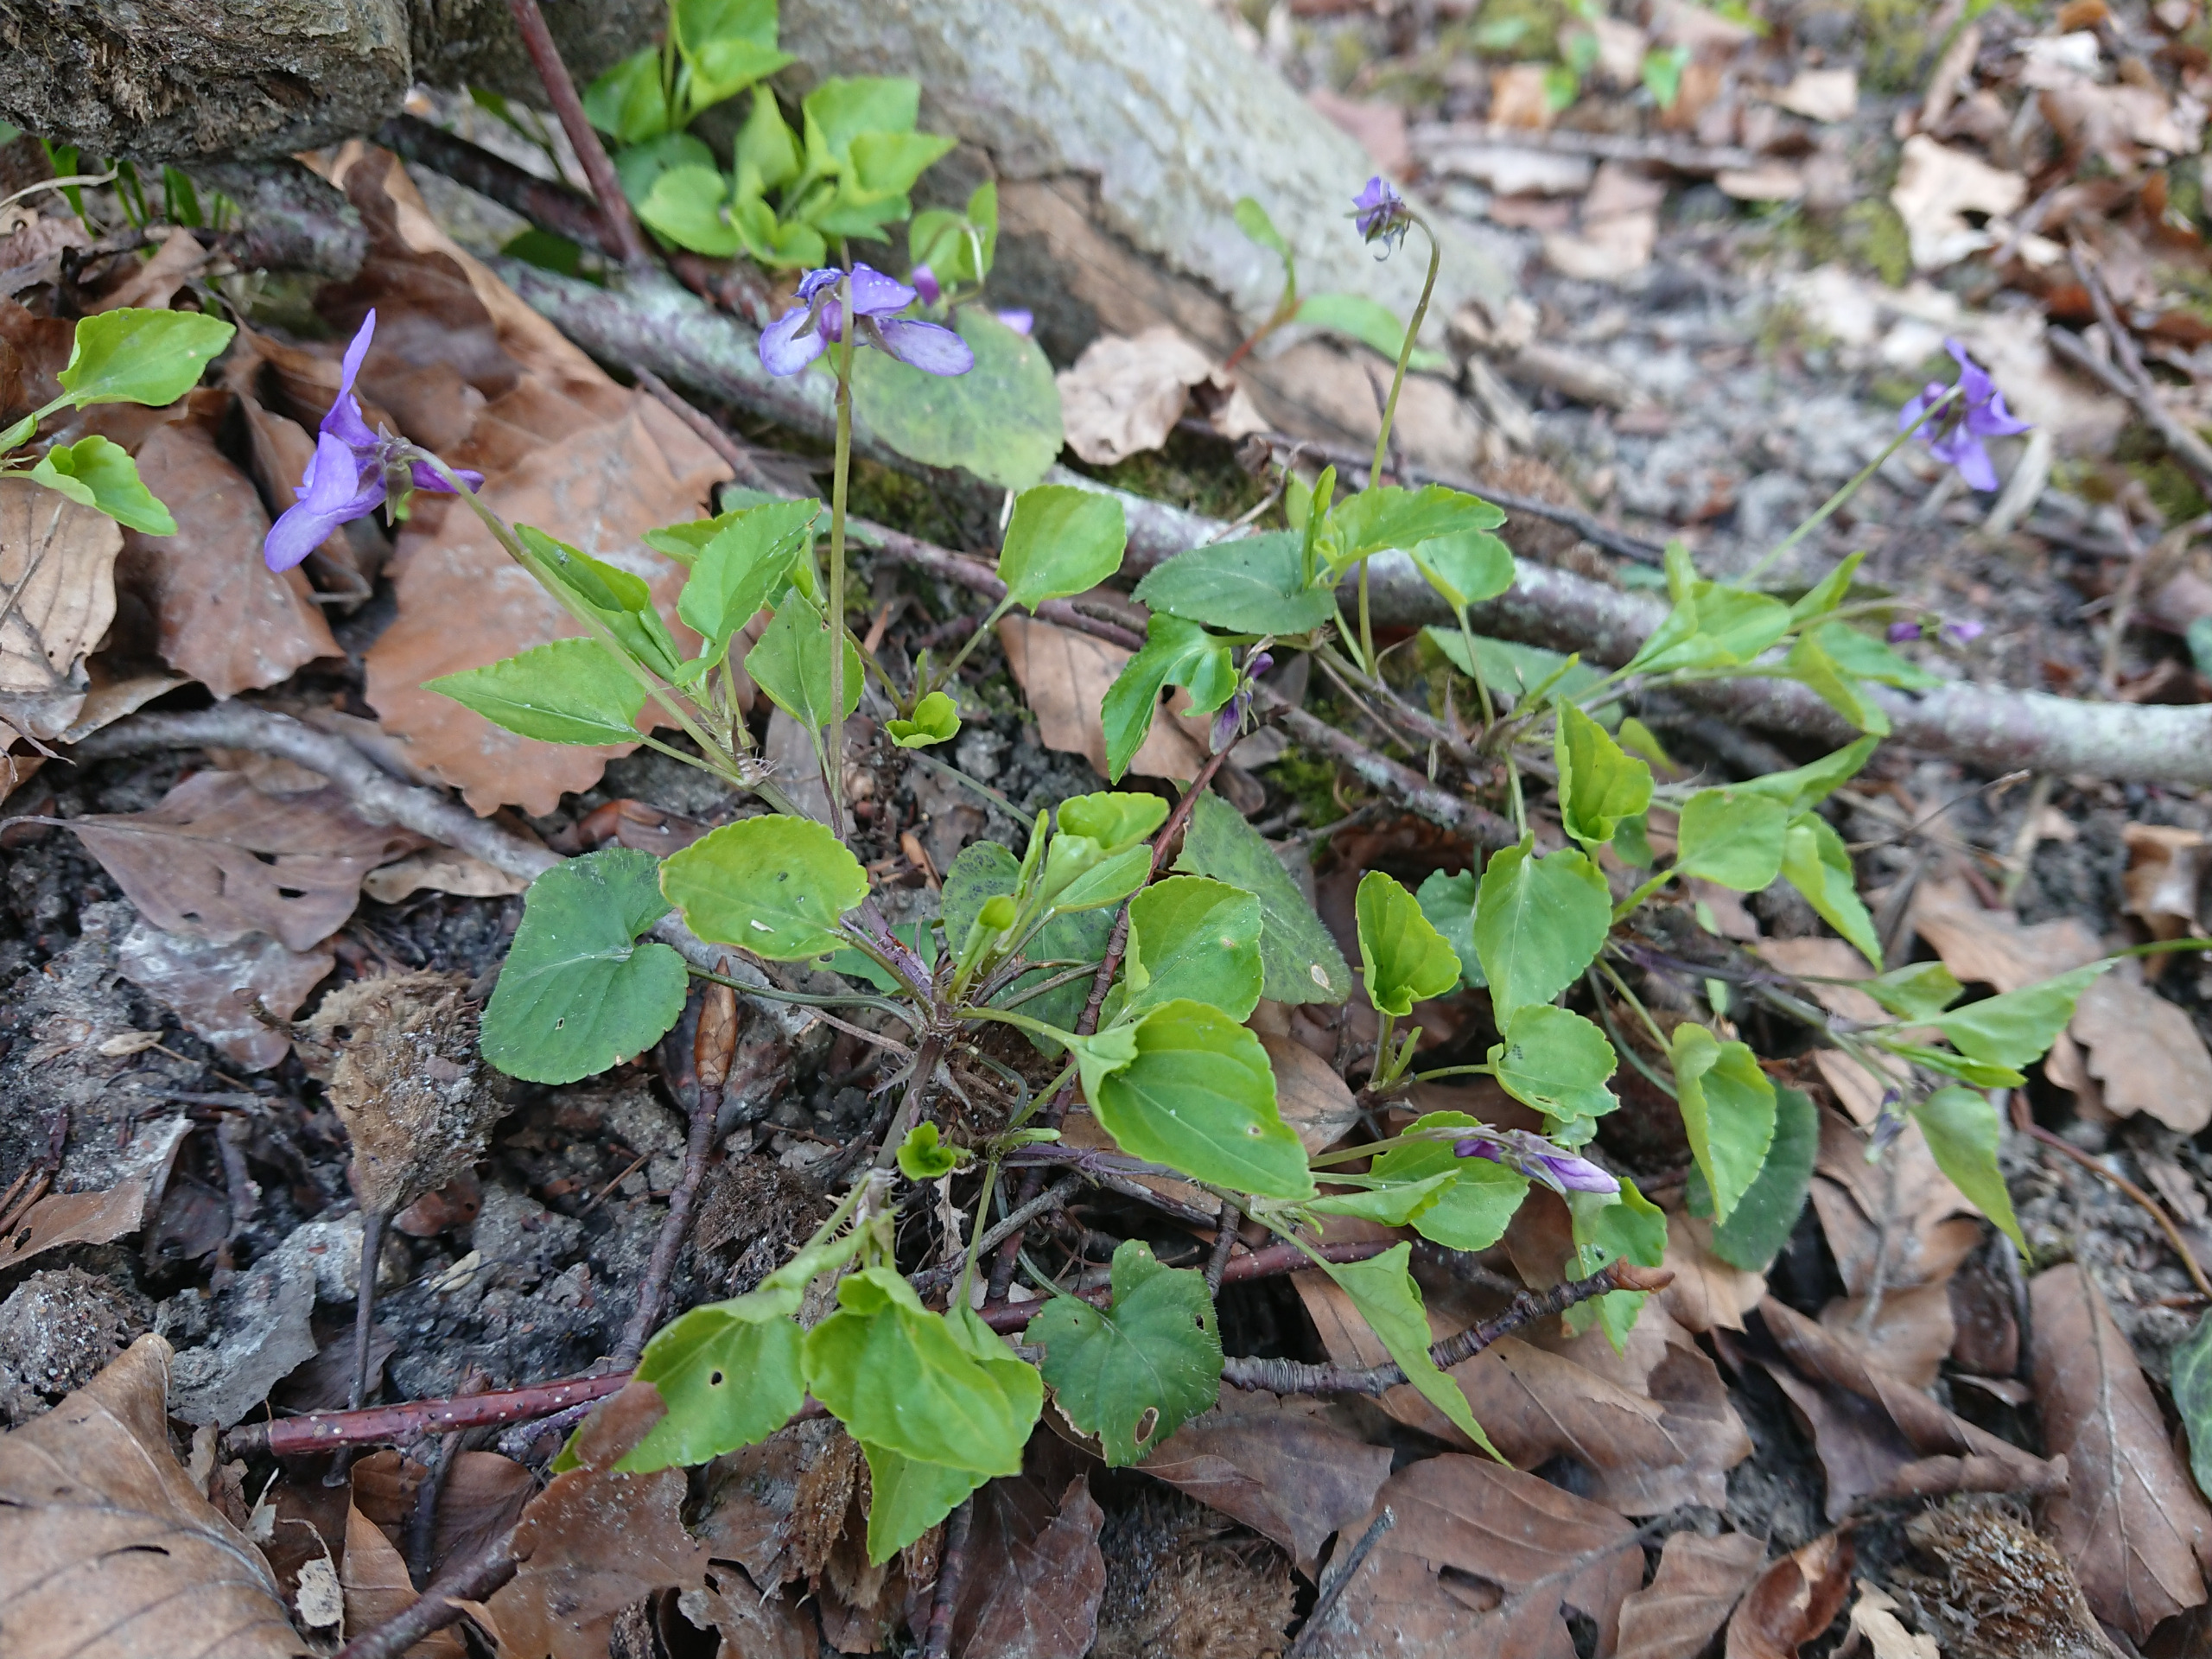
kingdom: Plantae
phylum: Tracheophyta
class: Magnoliopsida
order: Malpighiales
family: Violaceae
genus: Viola
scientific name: Viola reichenbachiana
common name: Skov-viol
